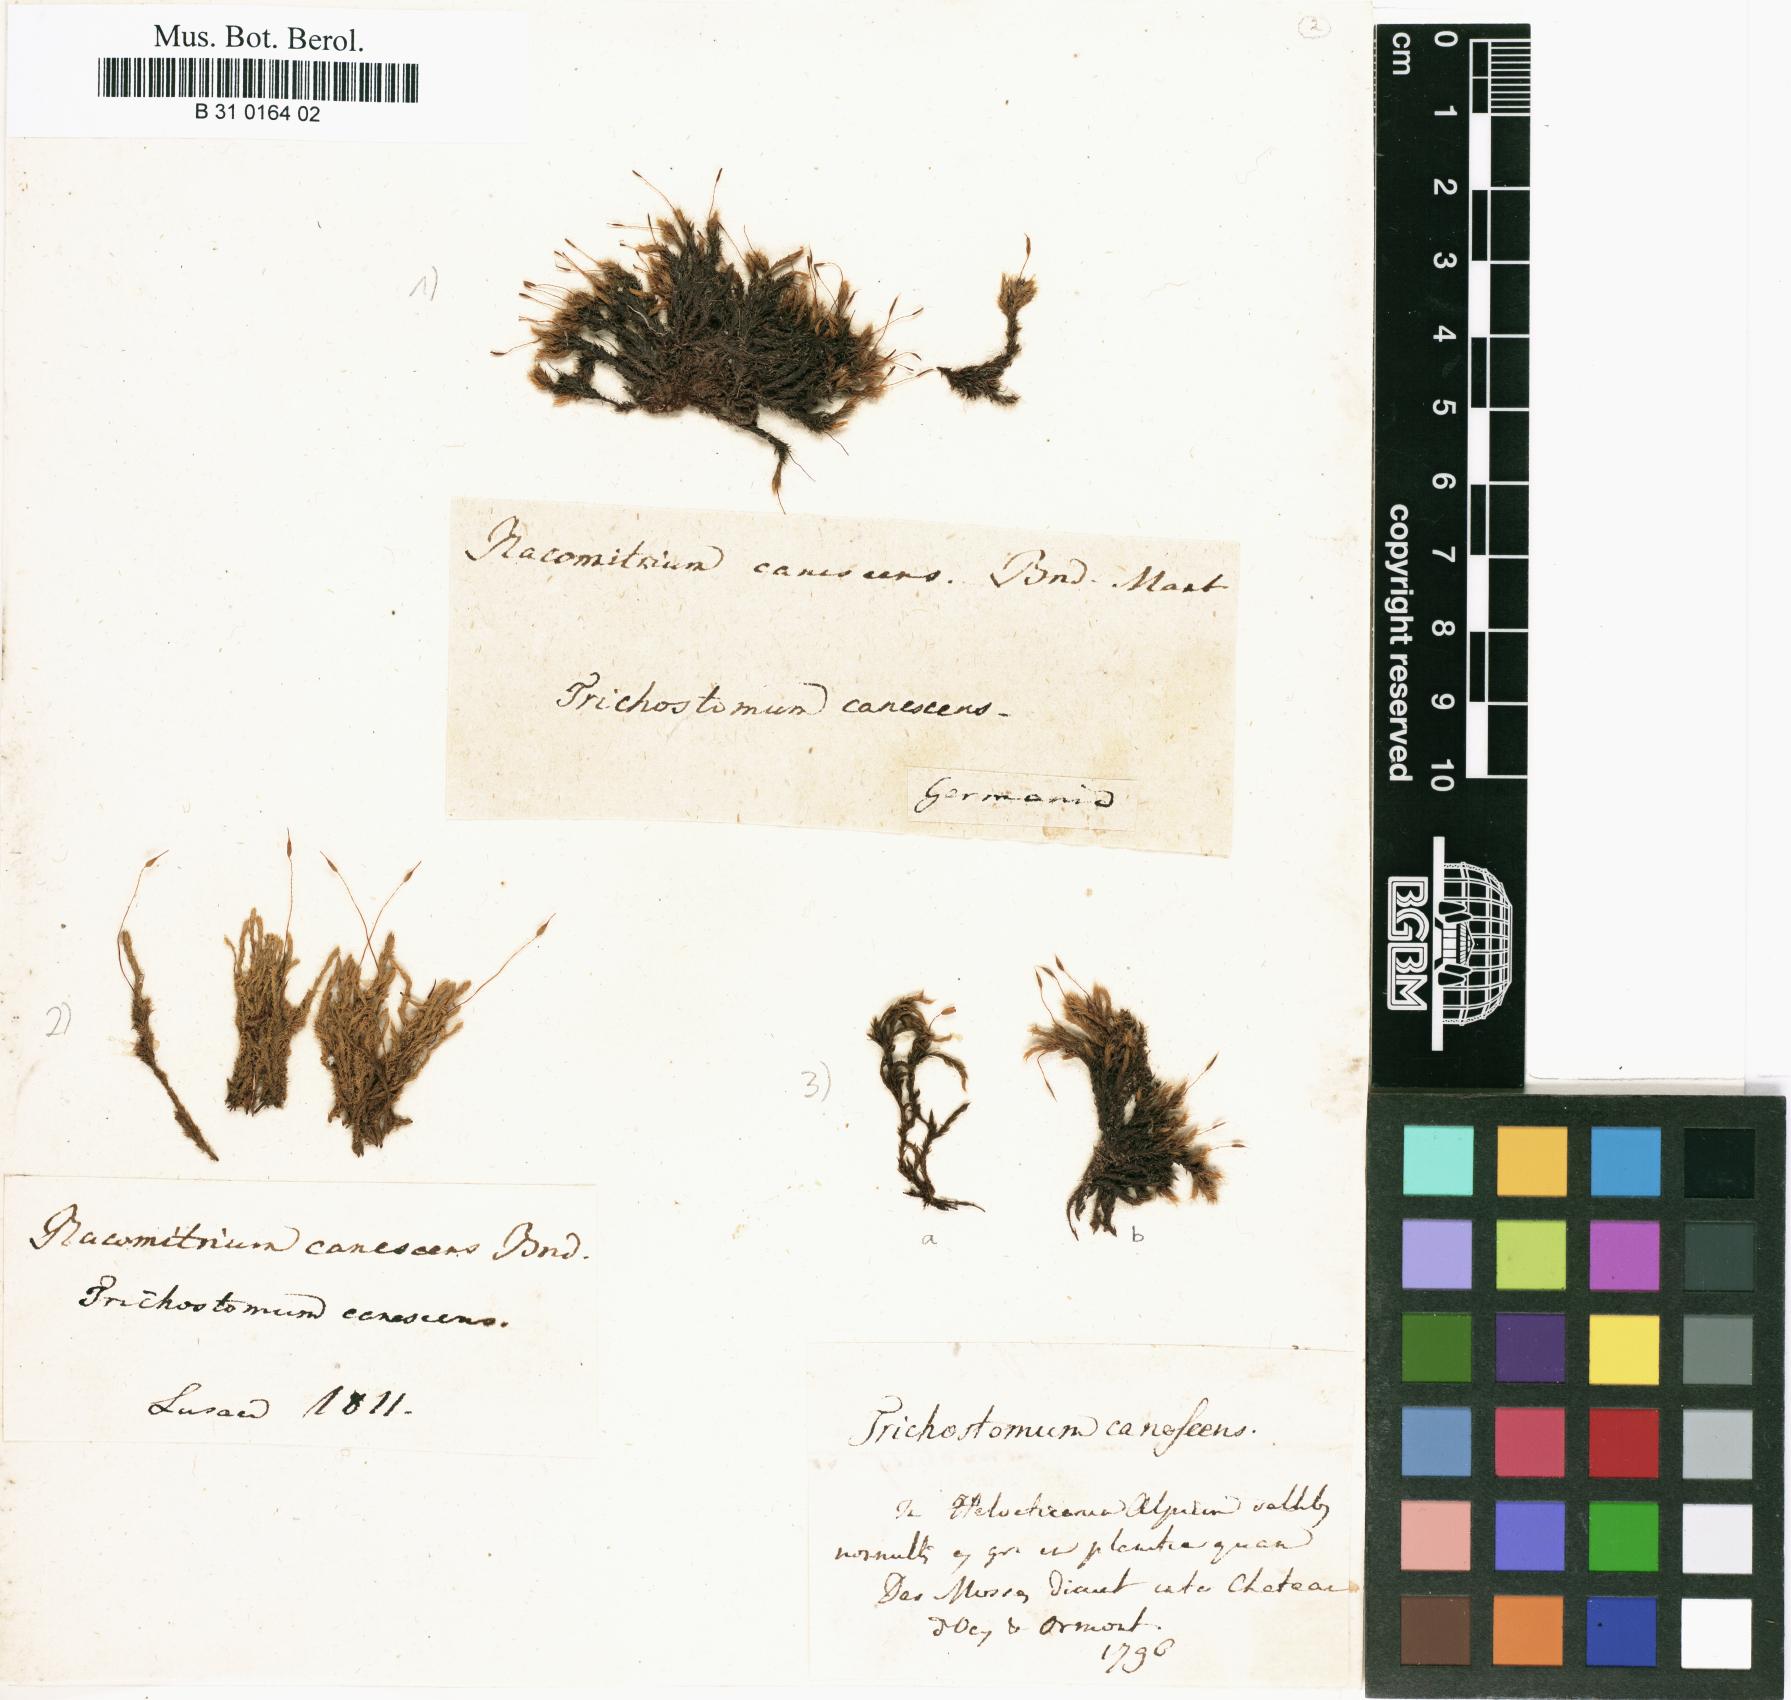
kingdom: Plantae
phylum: Bryophyta
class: Bryopsida
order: Grimmiales
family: Grimmiaceae
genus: Niphotrichum
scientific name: Niphotrichum canescens
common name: Hoary fringe-moss
